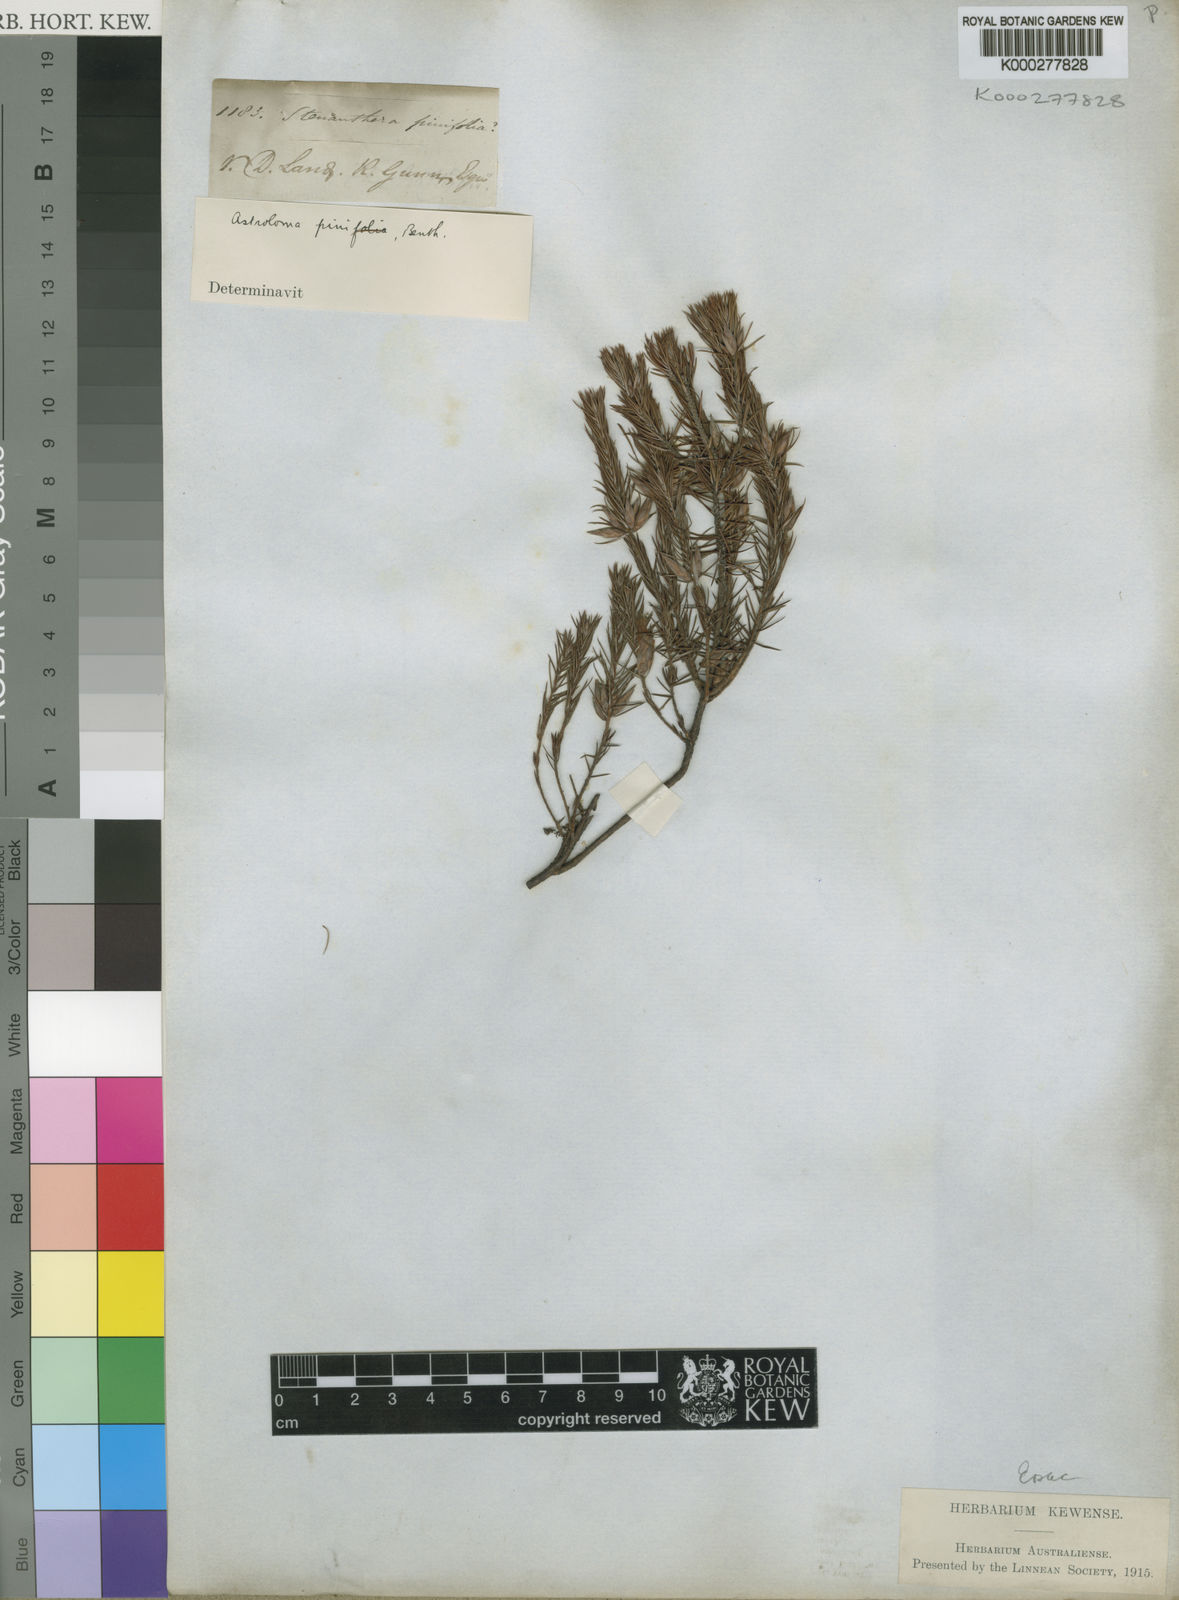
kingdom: Plantae
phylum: Tracheophyta
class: Magnoliopsida
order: Ericales
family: Ericaceae
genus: Stenanthera
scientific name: Stenanthera pinifolia
